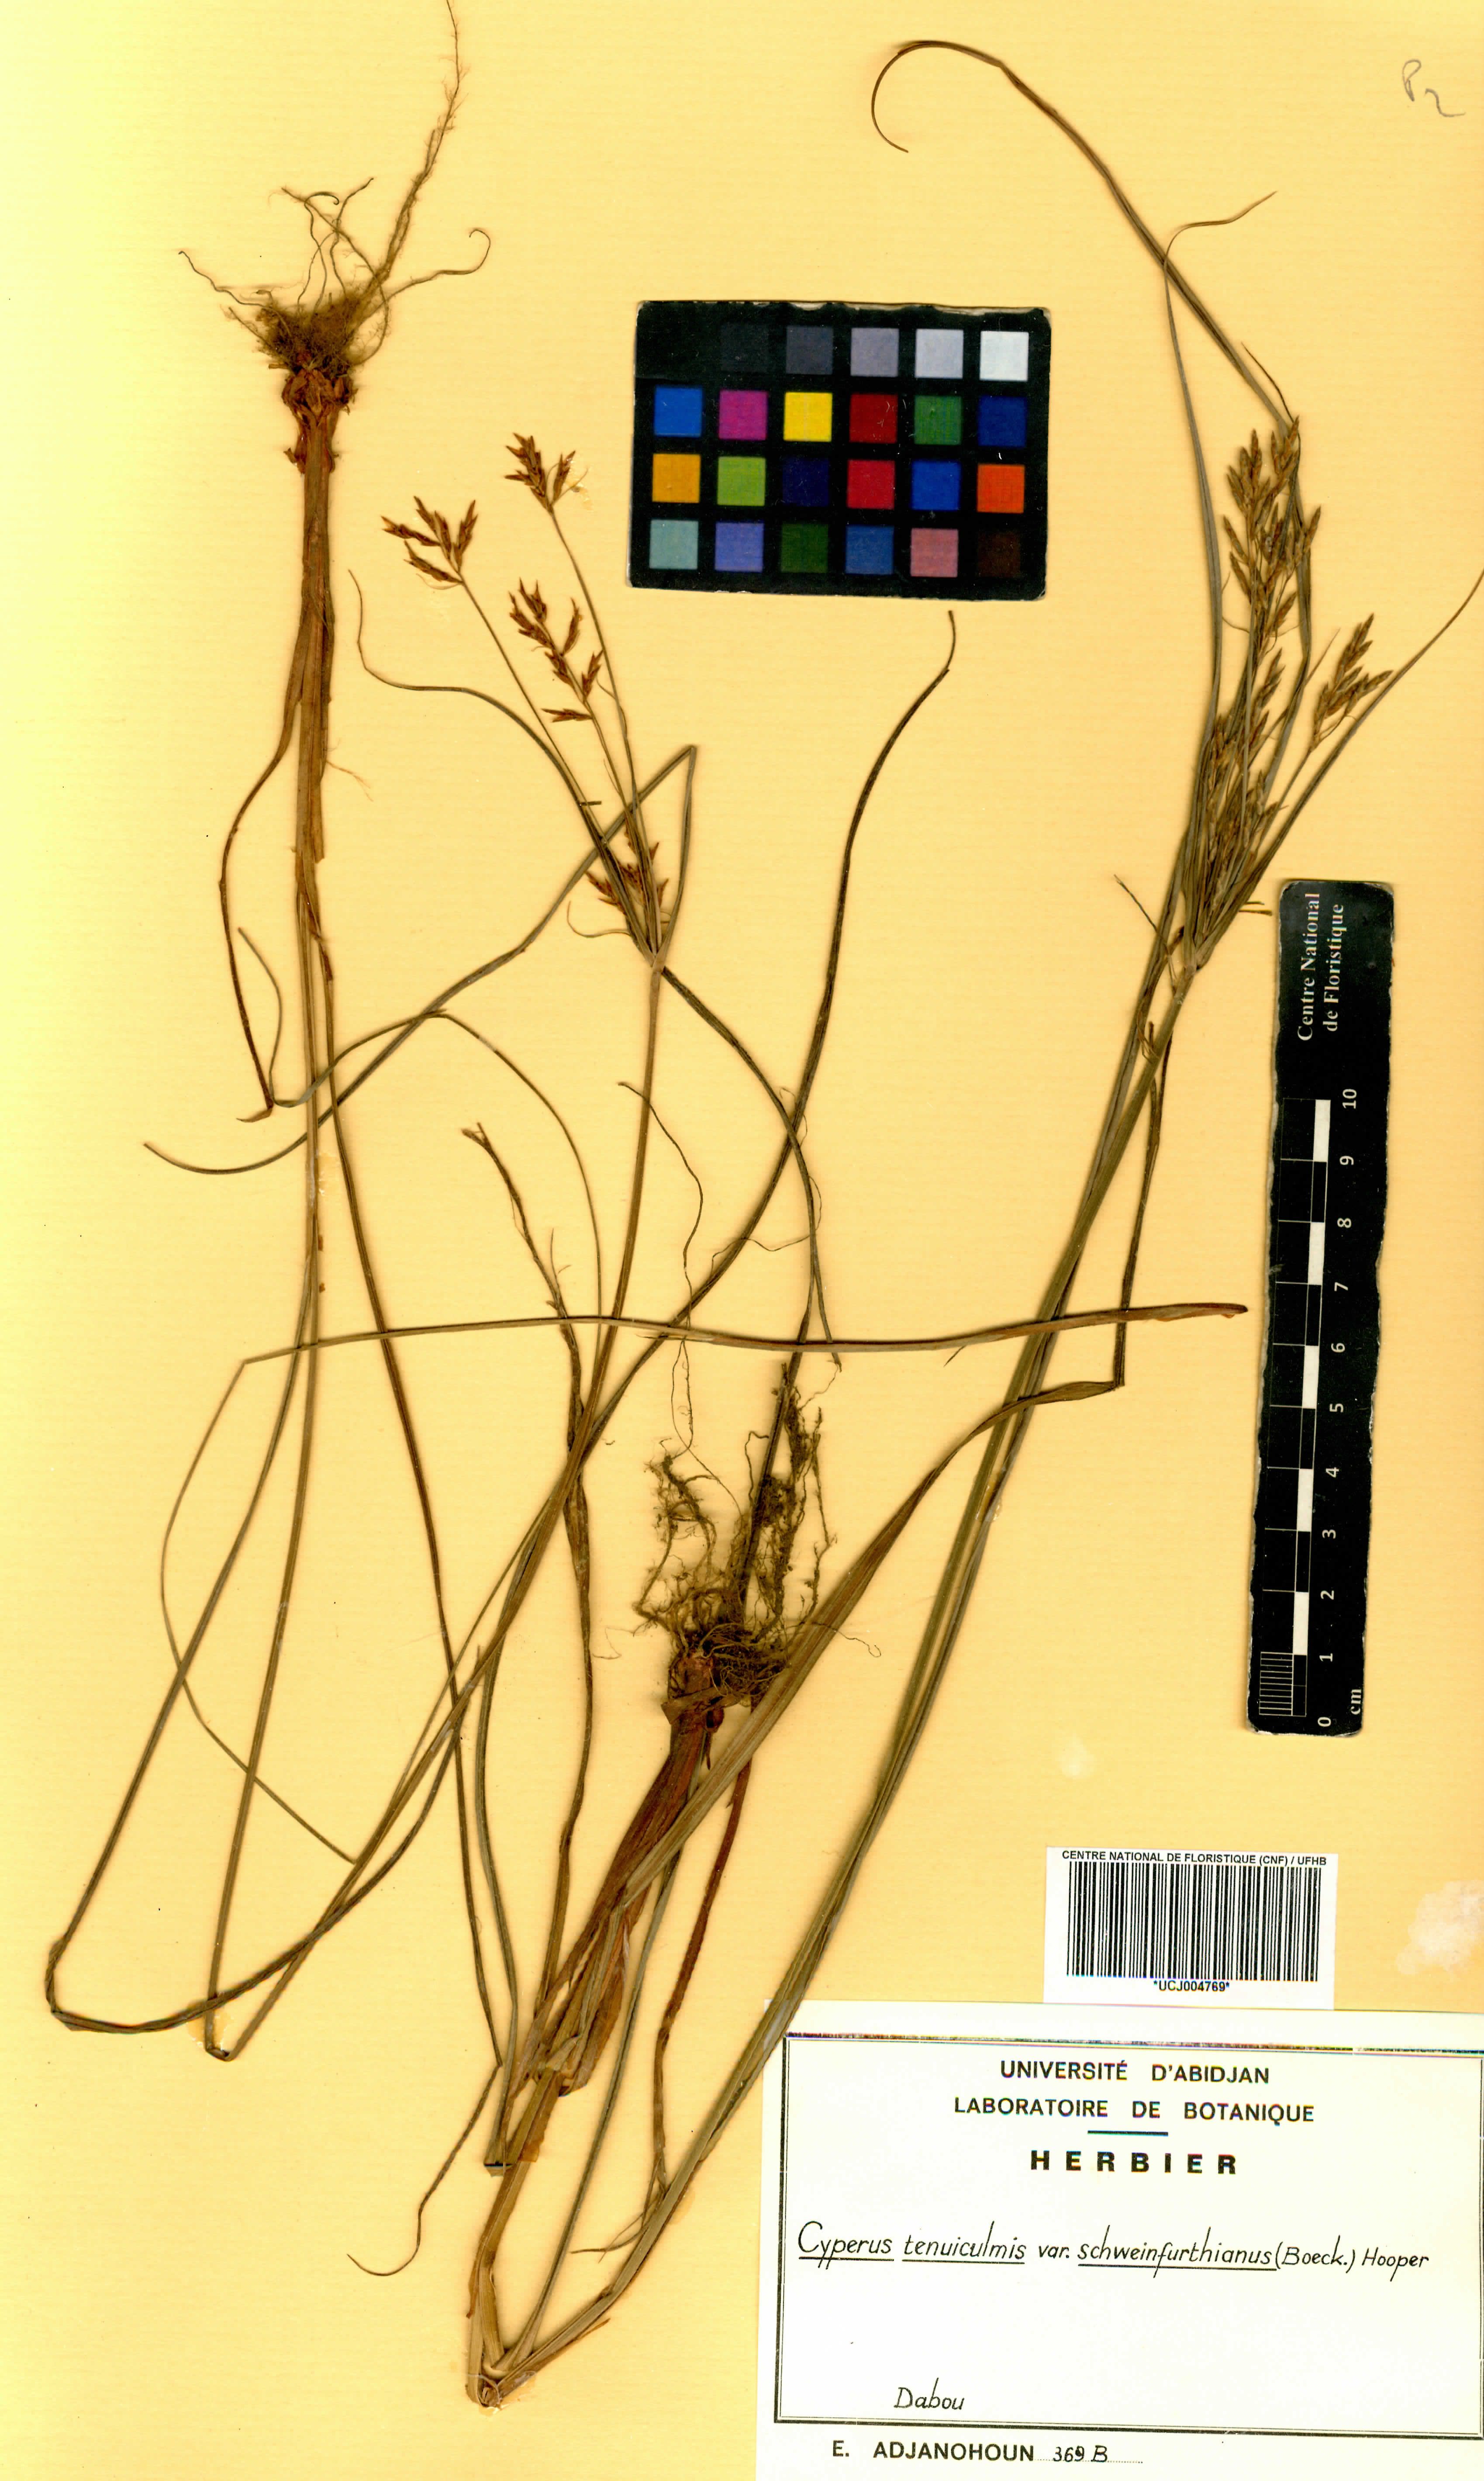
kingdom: Plantae
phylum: Tracheophyta
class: Liliopsida
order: Poales
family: Cyperaceae
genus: Cyperus
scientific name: Cyperus tenuiculmis
